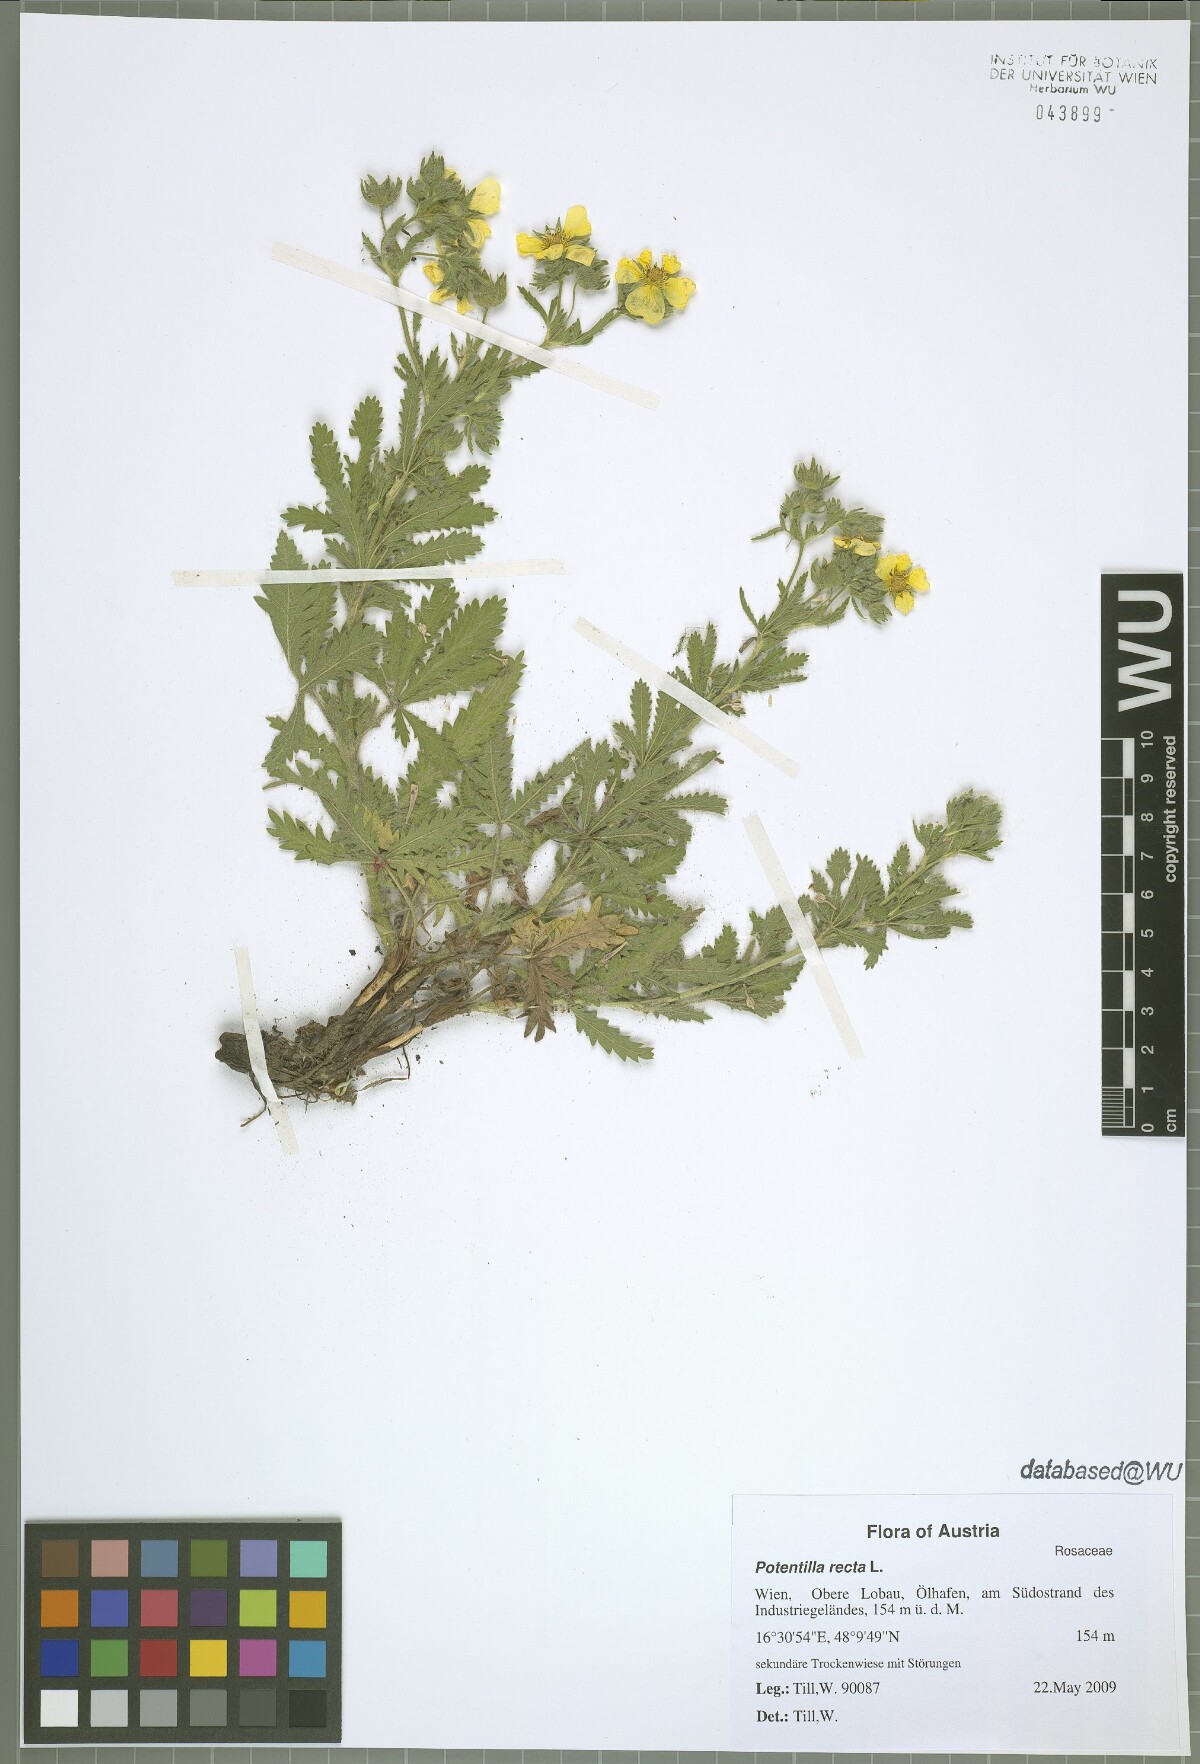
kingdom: Plantae
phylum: Tracheophyta
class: Magnoliopsida
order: Rosales
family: Rosaceae
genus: Potentilla
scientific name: Potentilla recta
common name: Sulphur cinquefoil
